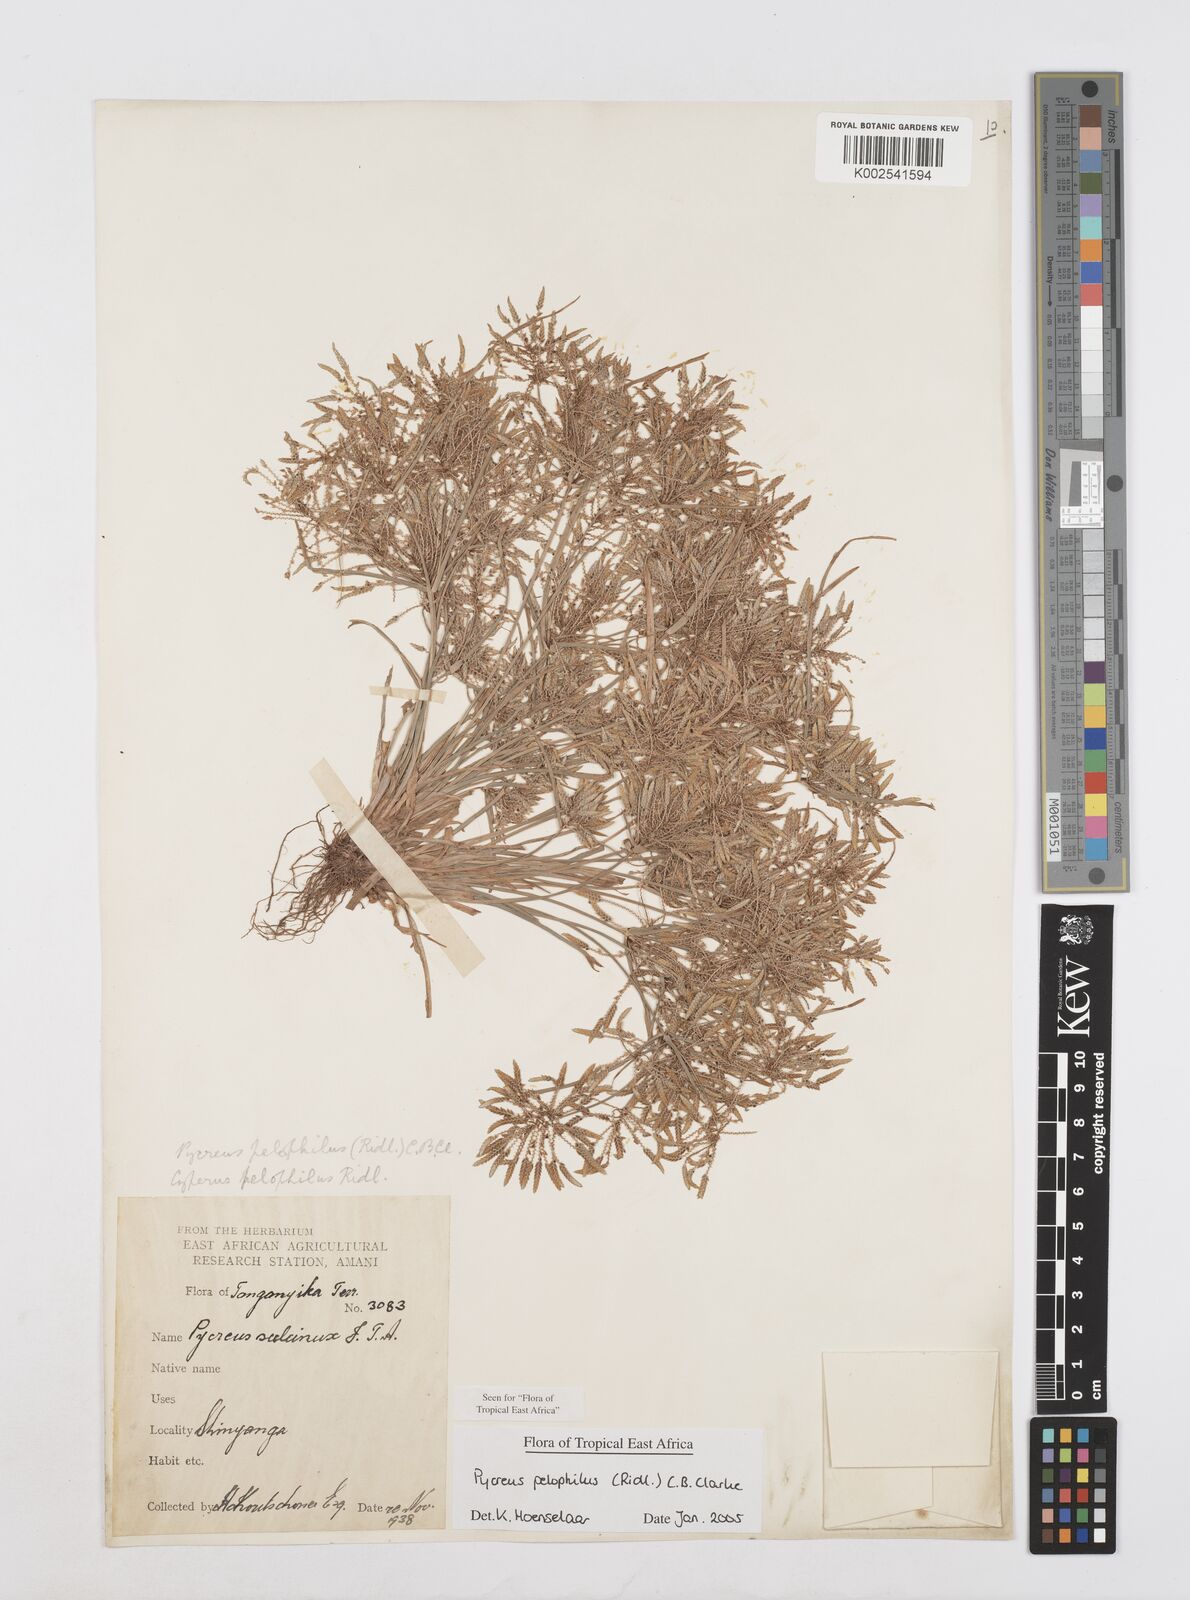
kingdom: Plantae
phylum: Tracheophyta
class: Liliopsida
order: Poales
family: Cyperaceae
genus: Cyperus
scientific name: Cyperus pelophilus
